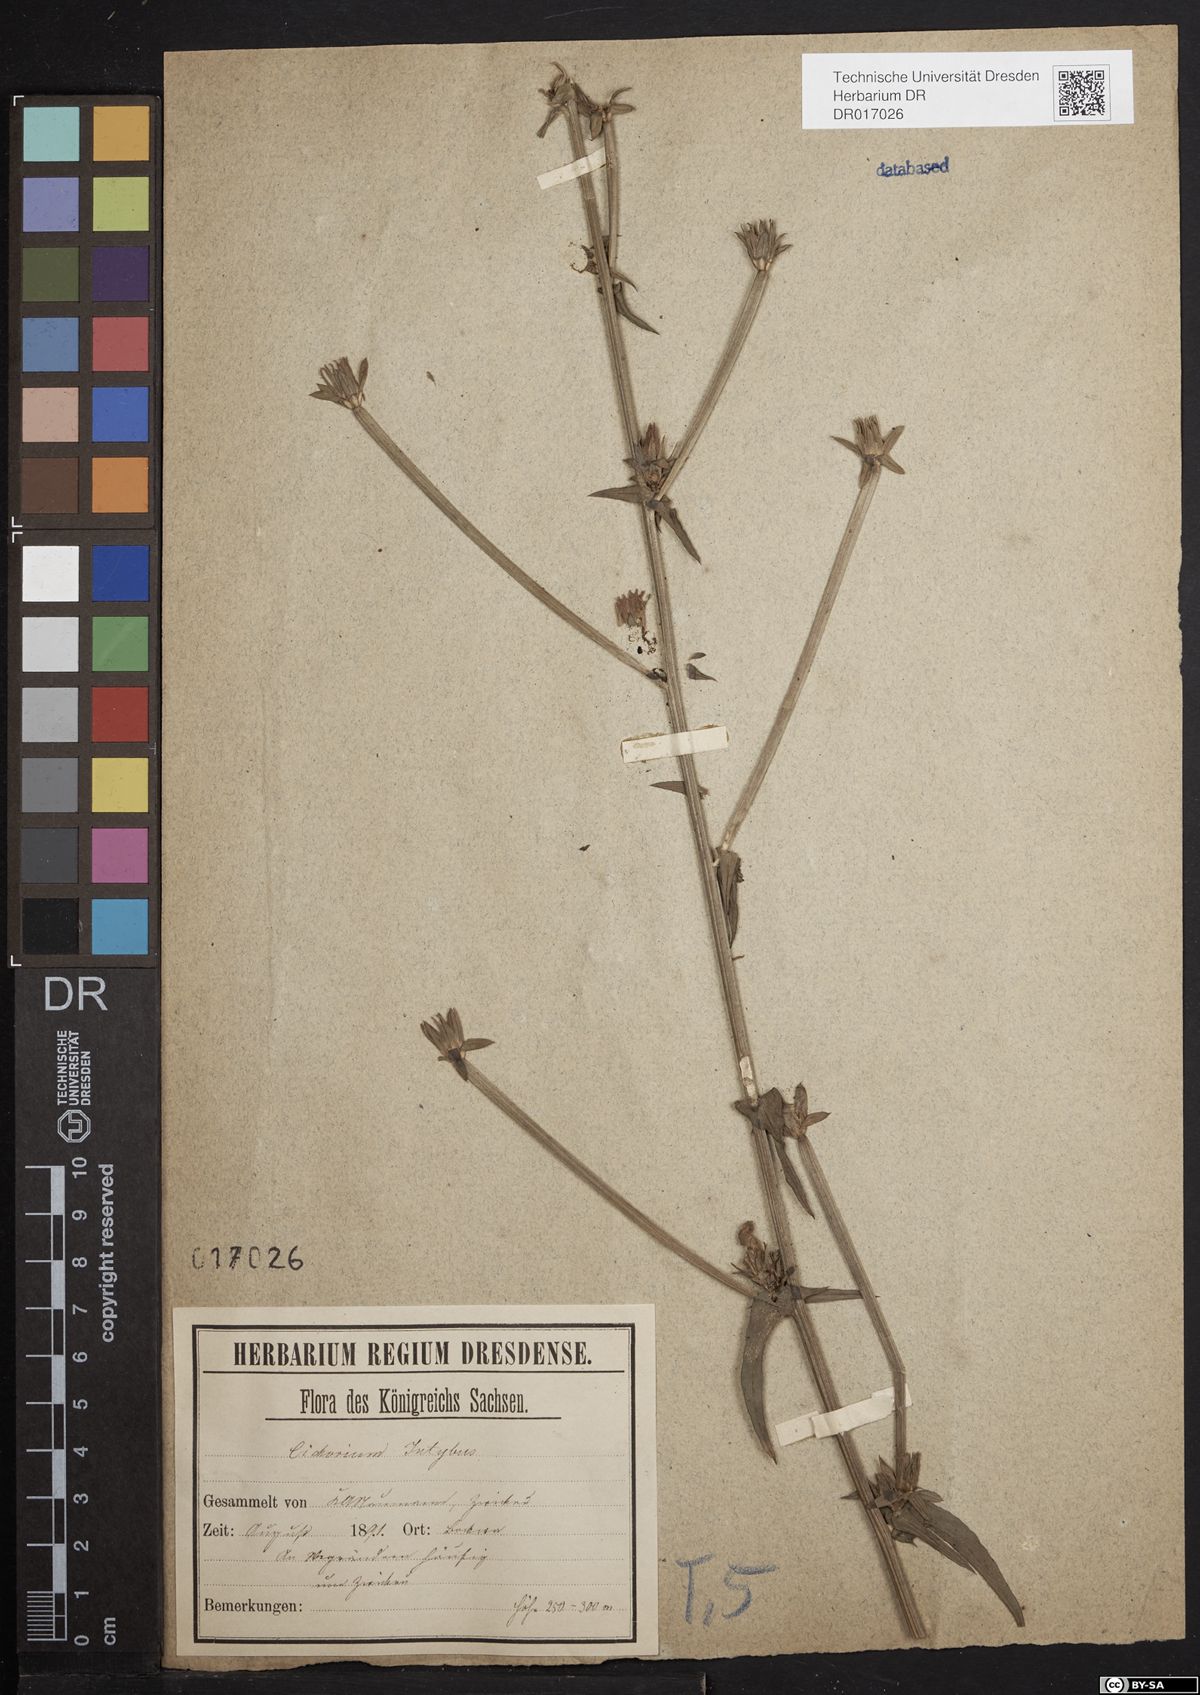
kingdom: Plantae
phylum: Tracheophyta
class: Magnoliopsida
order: Asterales
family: Asteraceae
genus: Cichorium
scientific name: Cichorium intybus
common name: Chicory
